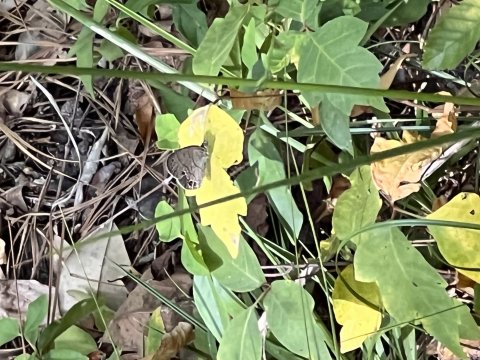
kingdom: Animalia
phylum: Arthropoda
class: Insecta
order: Lepidoptera
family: Nymphalidae
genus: Hermeuptychia
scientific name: Hermeuptychia hermes
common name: Carolina Satyr
